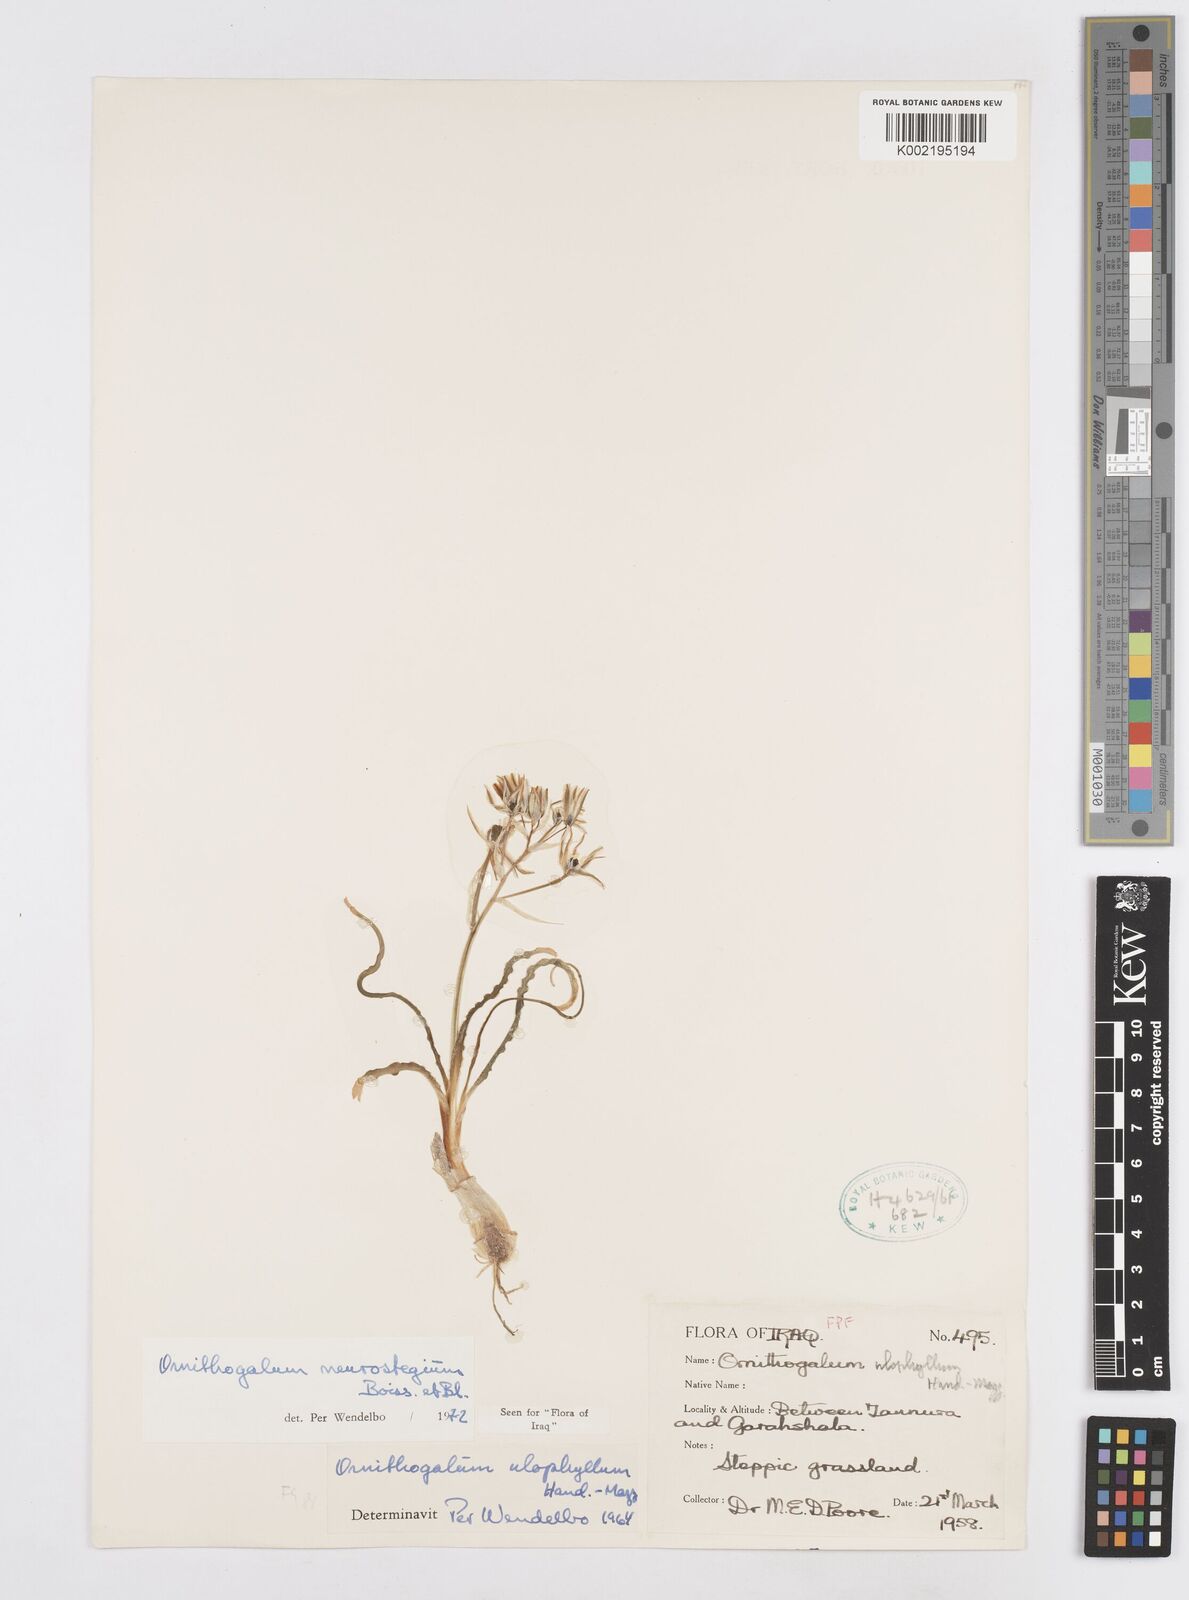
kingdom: Plantae
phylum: Tracheophyta
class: Liliopsida
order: Asparagales
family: Asparagaceae
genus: Ornithogalum
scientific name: Ornithogalum neurostegium
